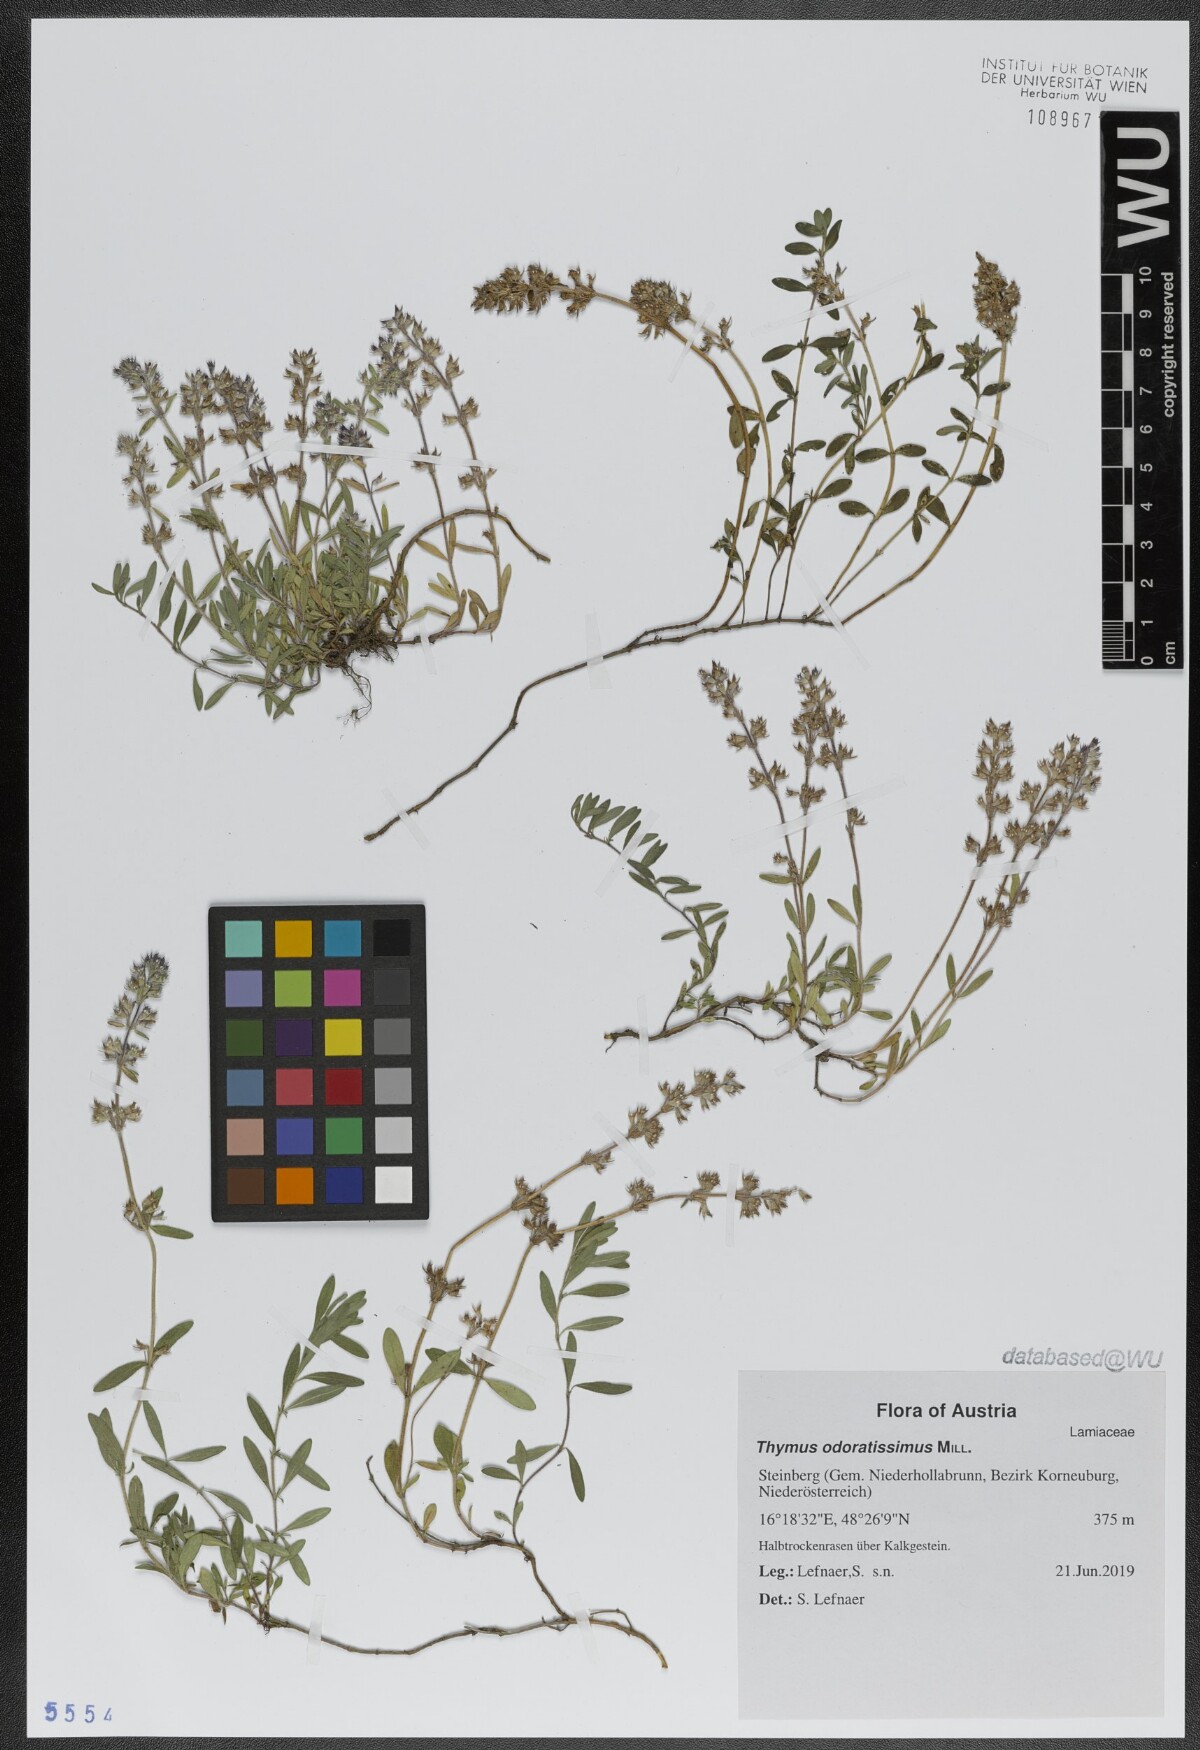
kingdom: Plantae
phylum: Tracheophyta
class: Magnoliopsida
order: Lamiales
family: Lamiaceae
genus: Thymus
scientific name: Thymus odoratissimus
